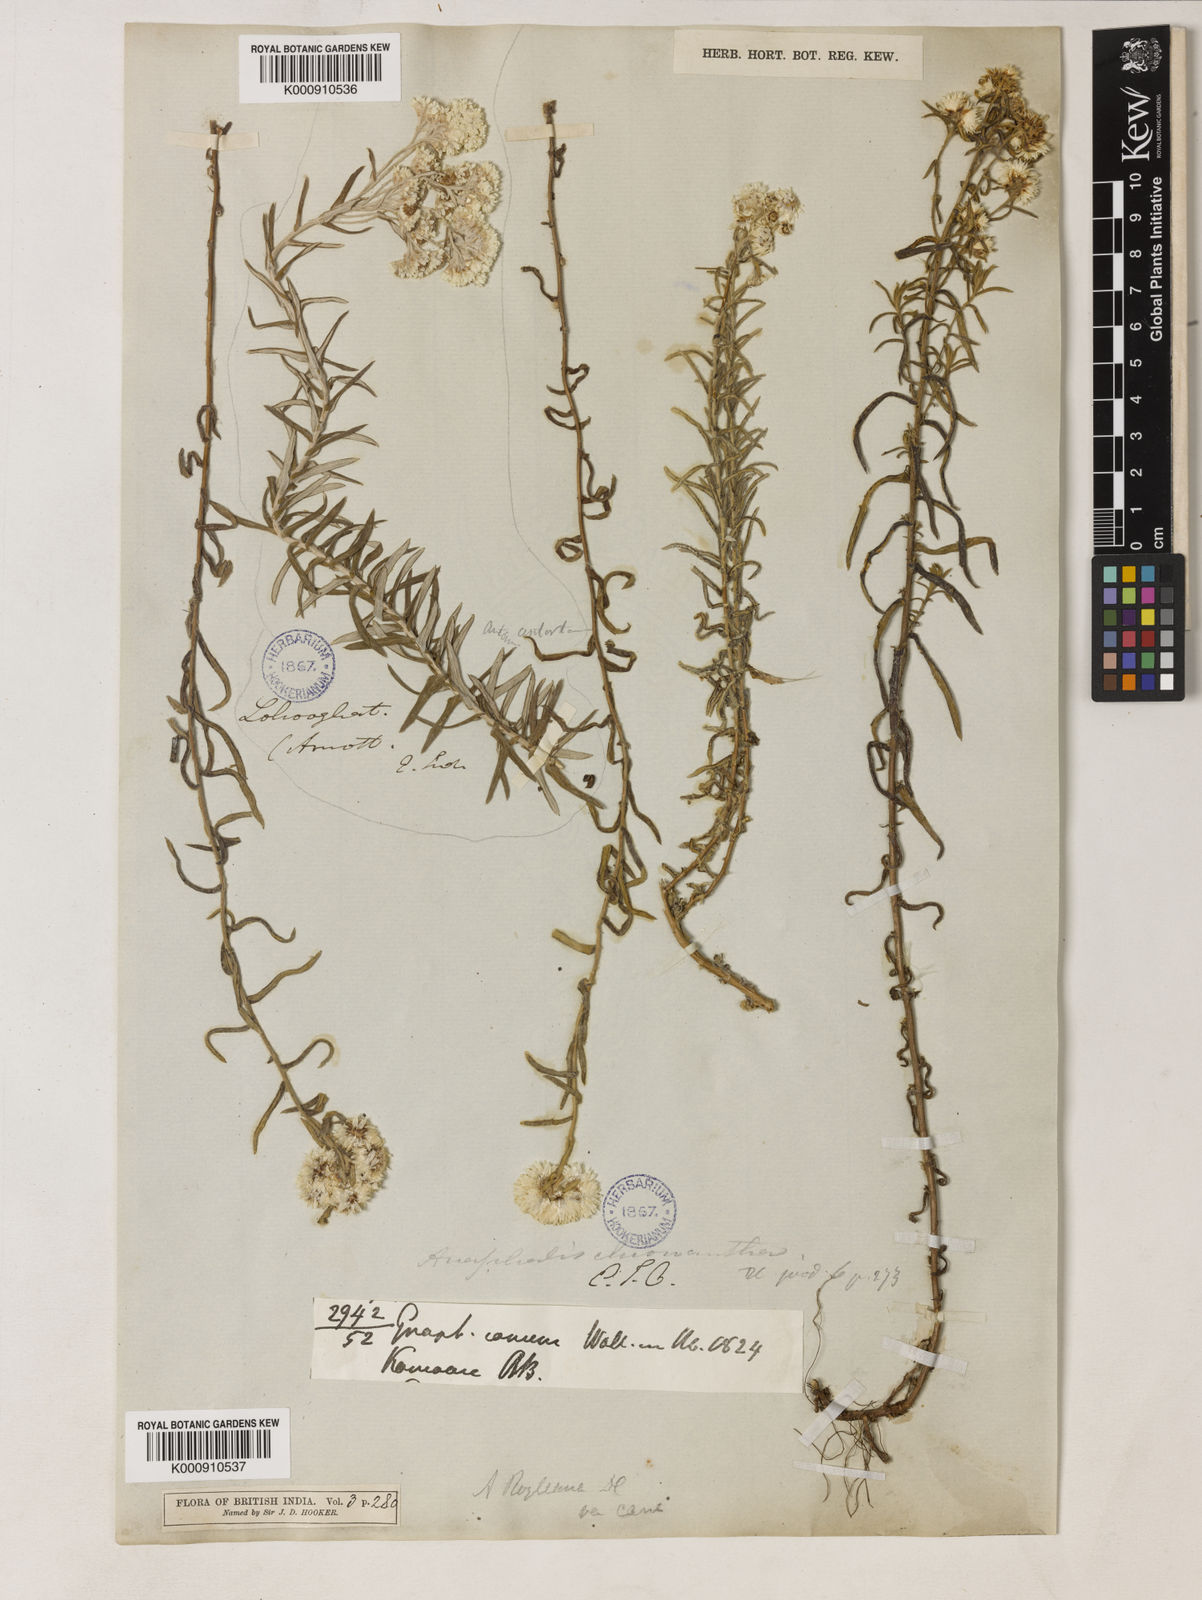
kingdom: Plantae
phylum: Tracheophyta
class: Magnoliopsida
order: Asterales
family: Asteraceae
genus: Anaphalis
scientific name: Anaphalis royleana
